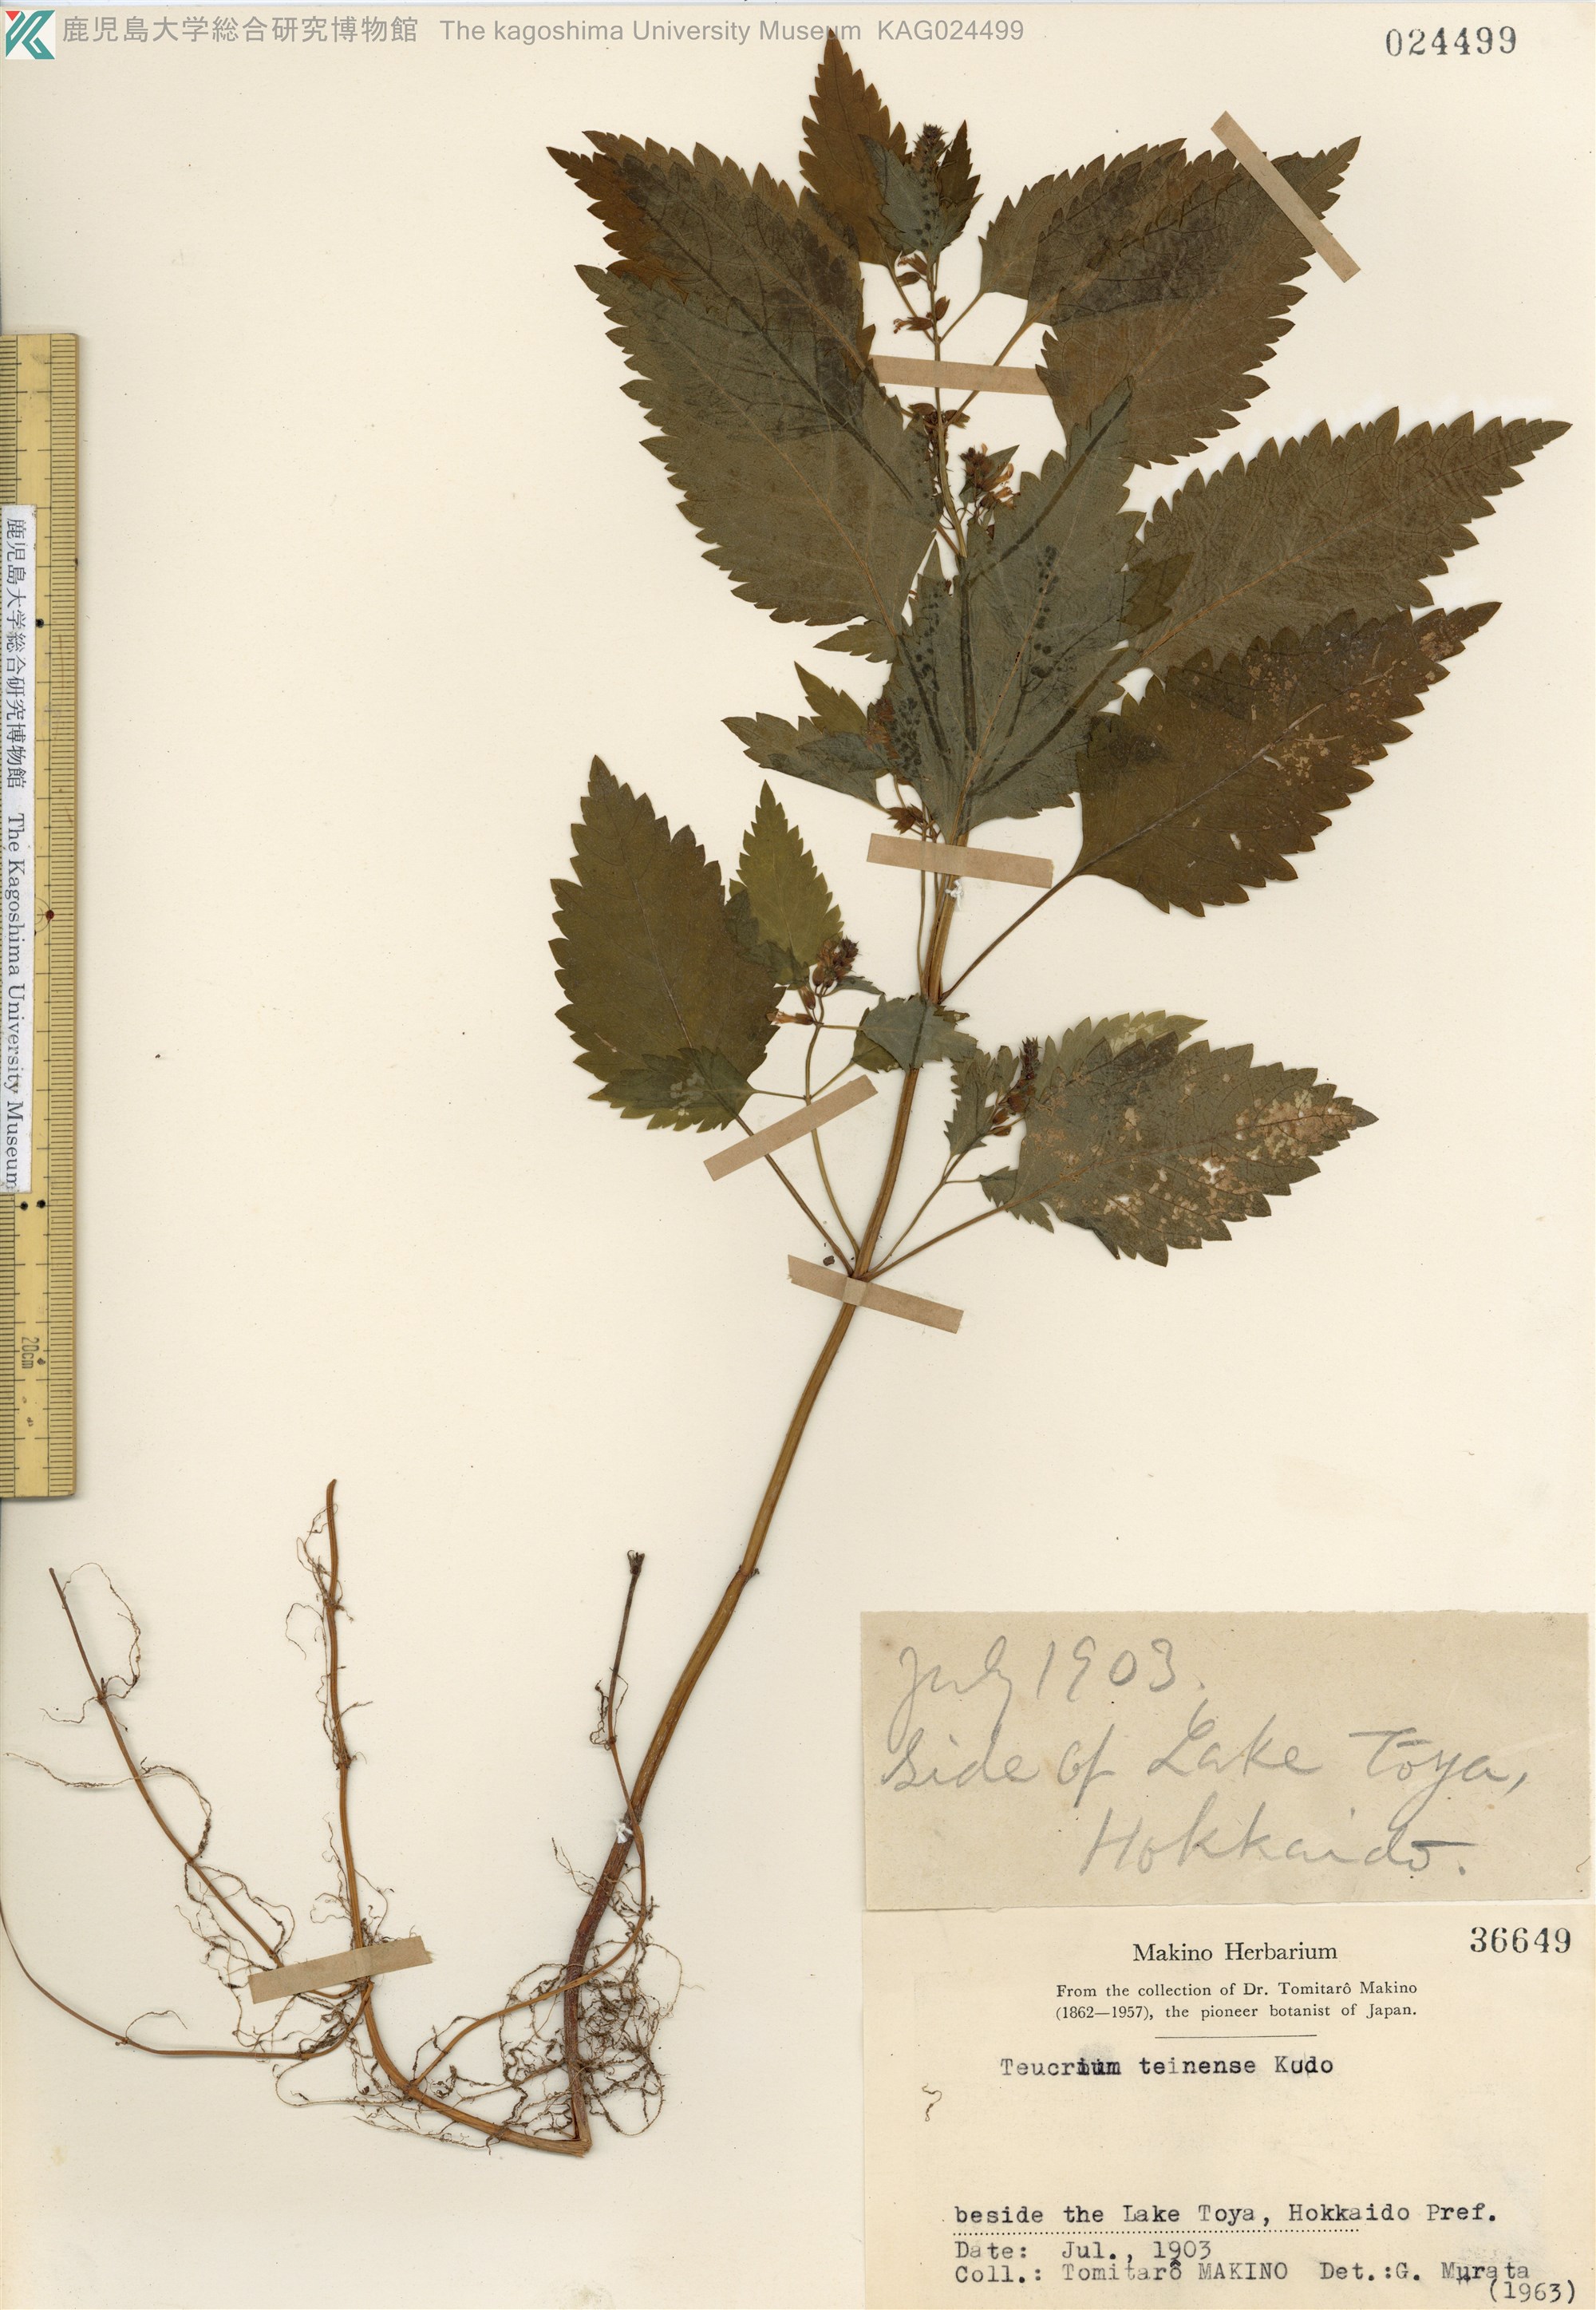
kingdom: Plantae
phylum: Tracheophyta
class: Magnoliopsida
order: Lamiales
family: Lamiaceae
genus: Teucrium
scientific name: Teucrium teinense
